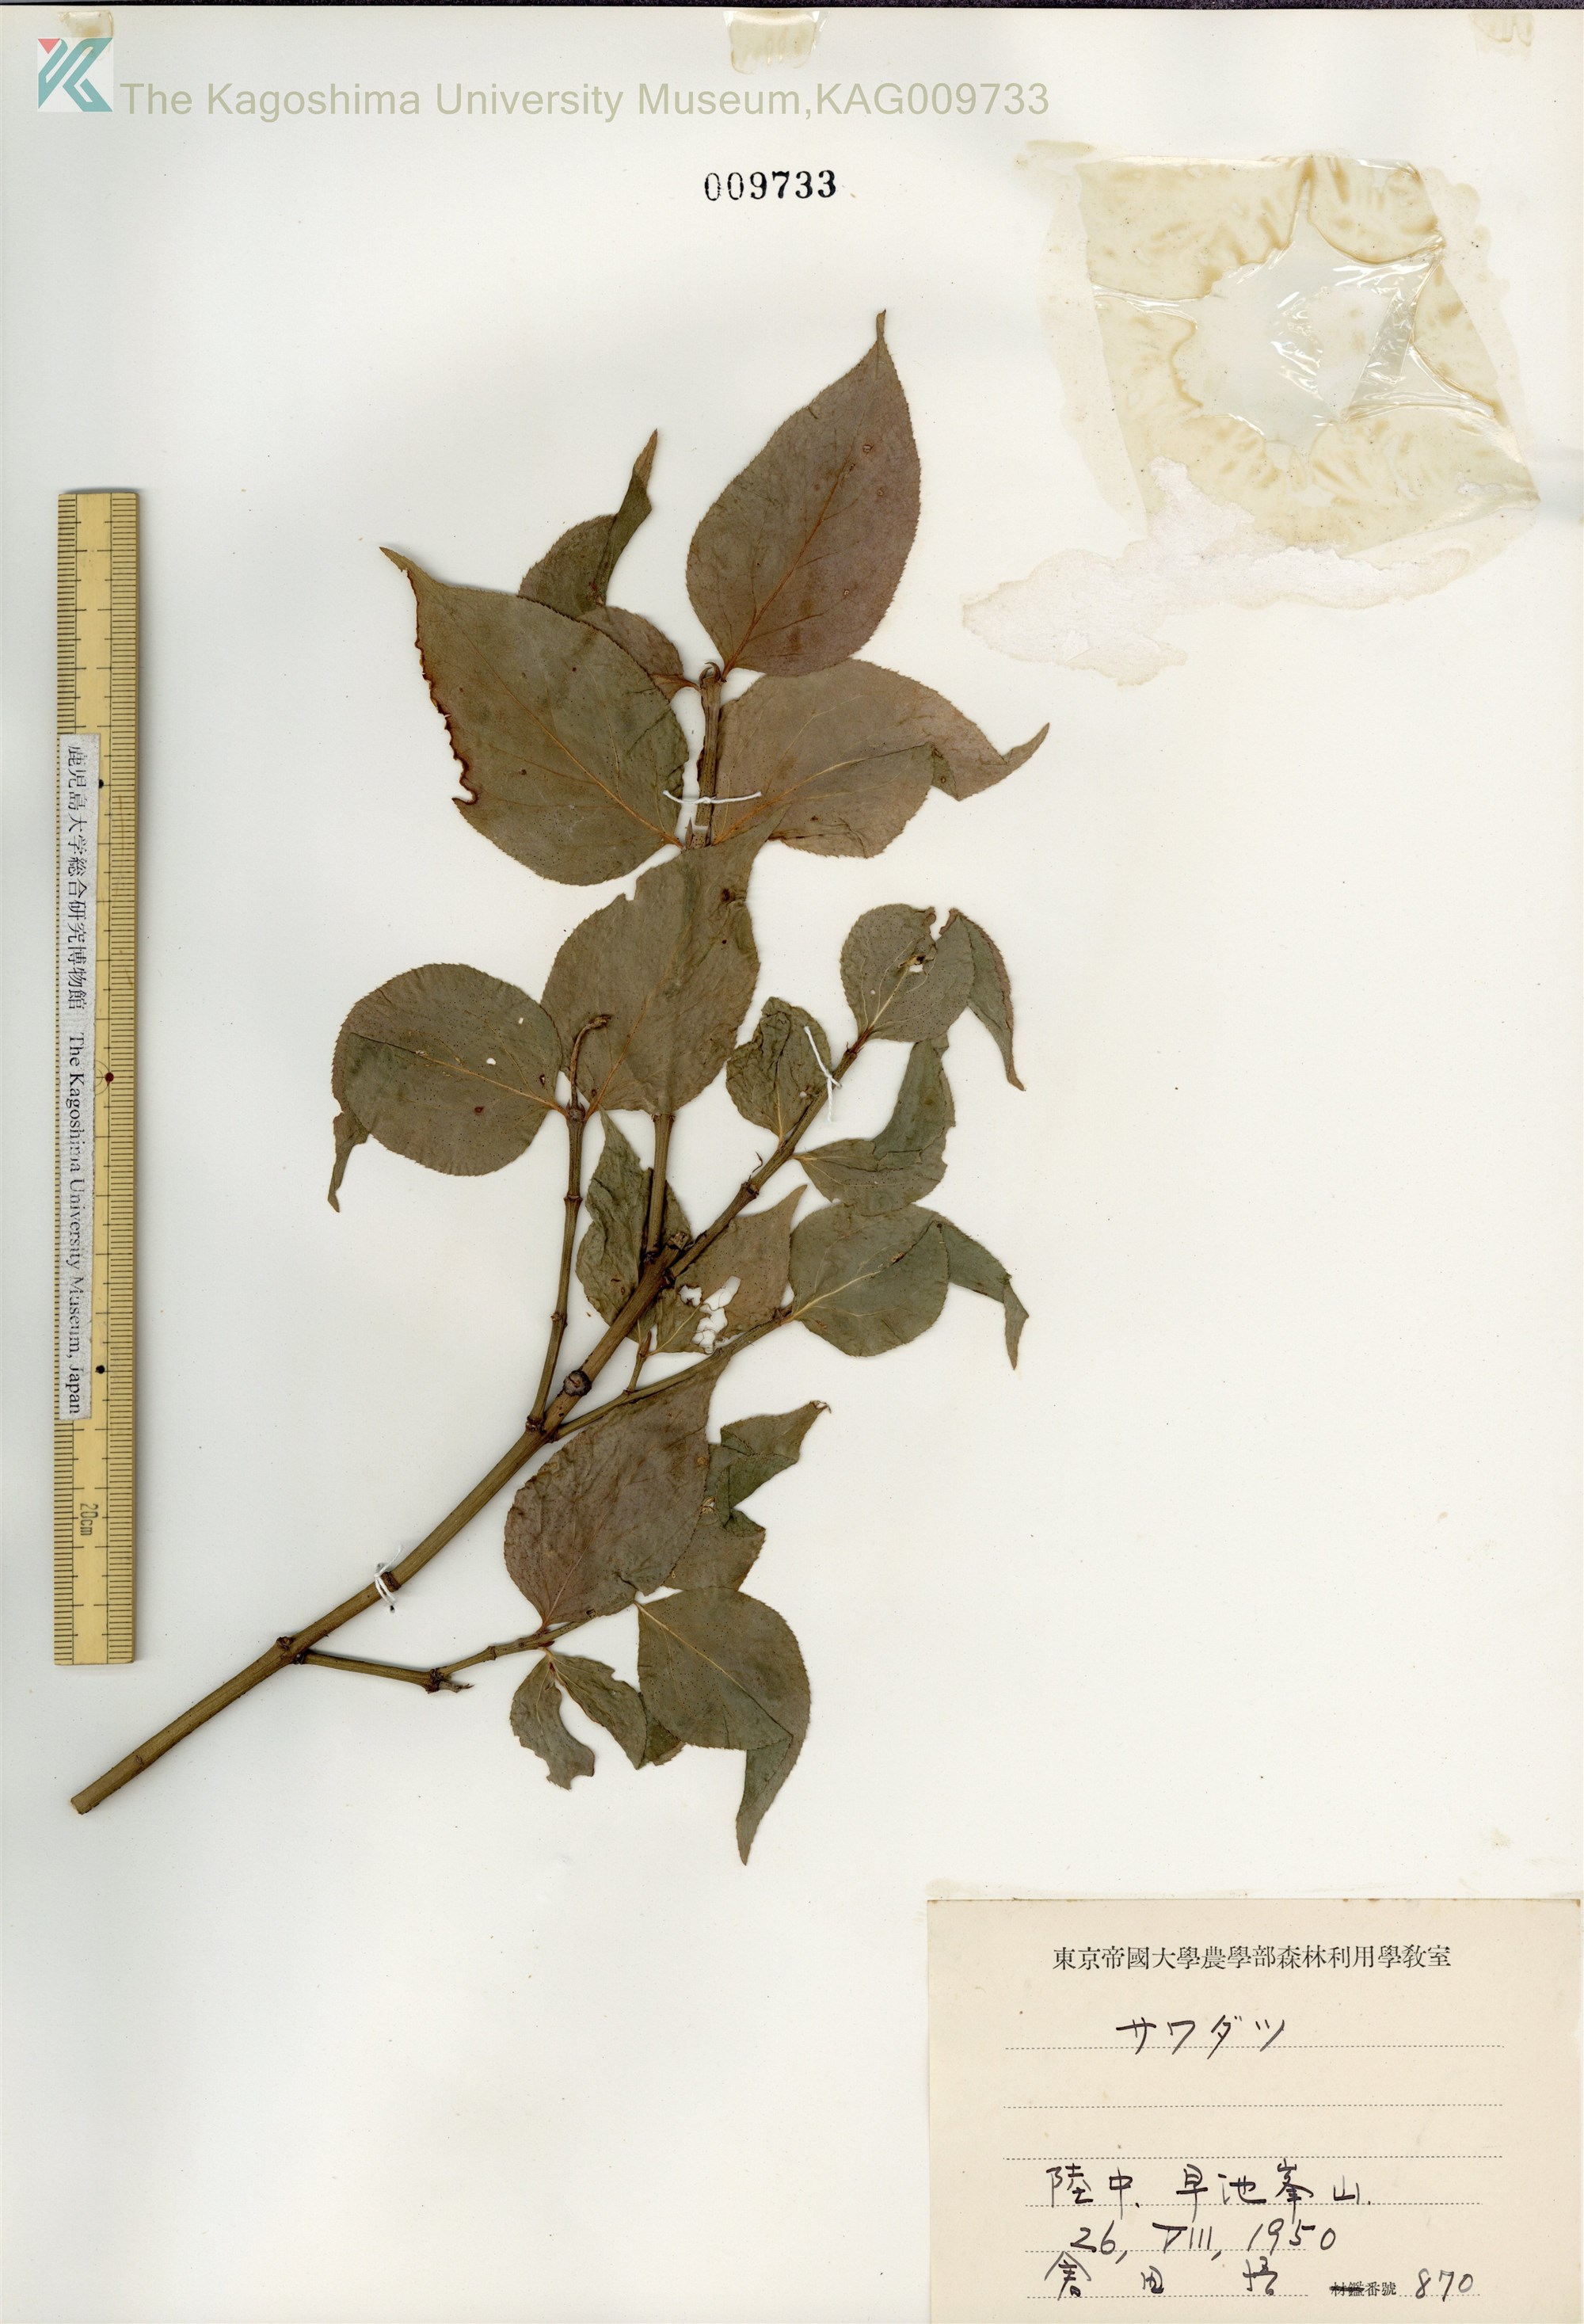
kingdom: Plantae
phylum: Tracheophyta
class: Magnoliopsida
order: Celastrales
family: Celastraceae
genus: Euonymus
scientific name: Euonymus melananthus
